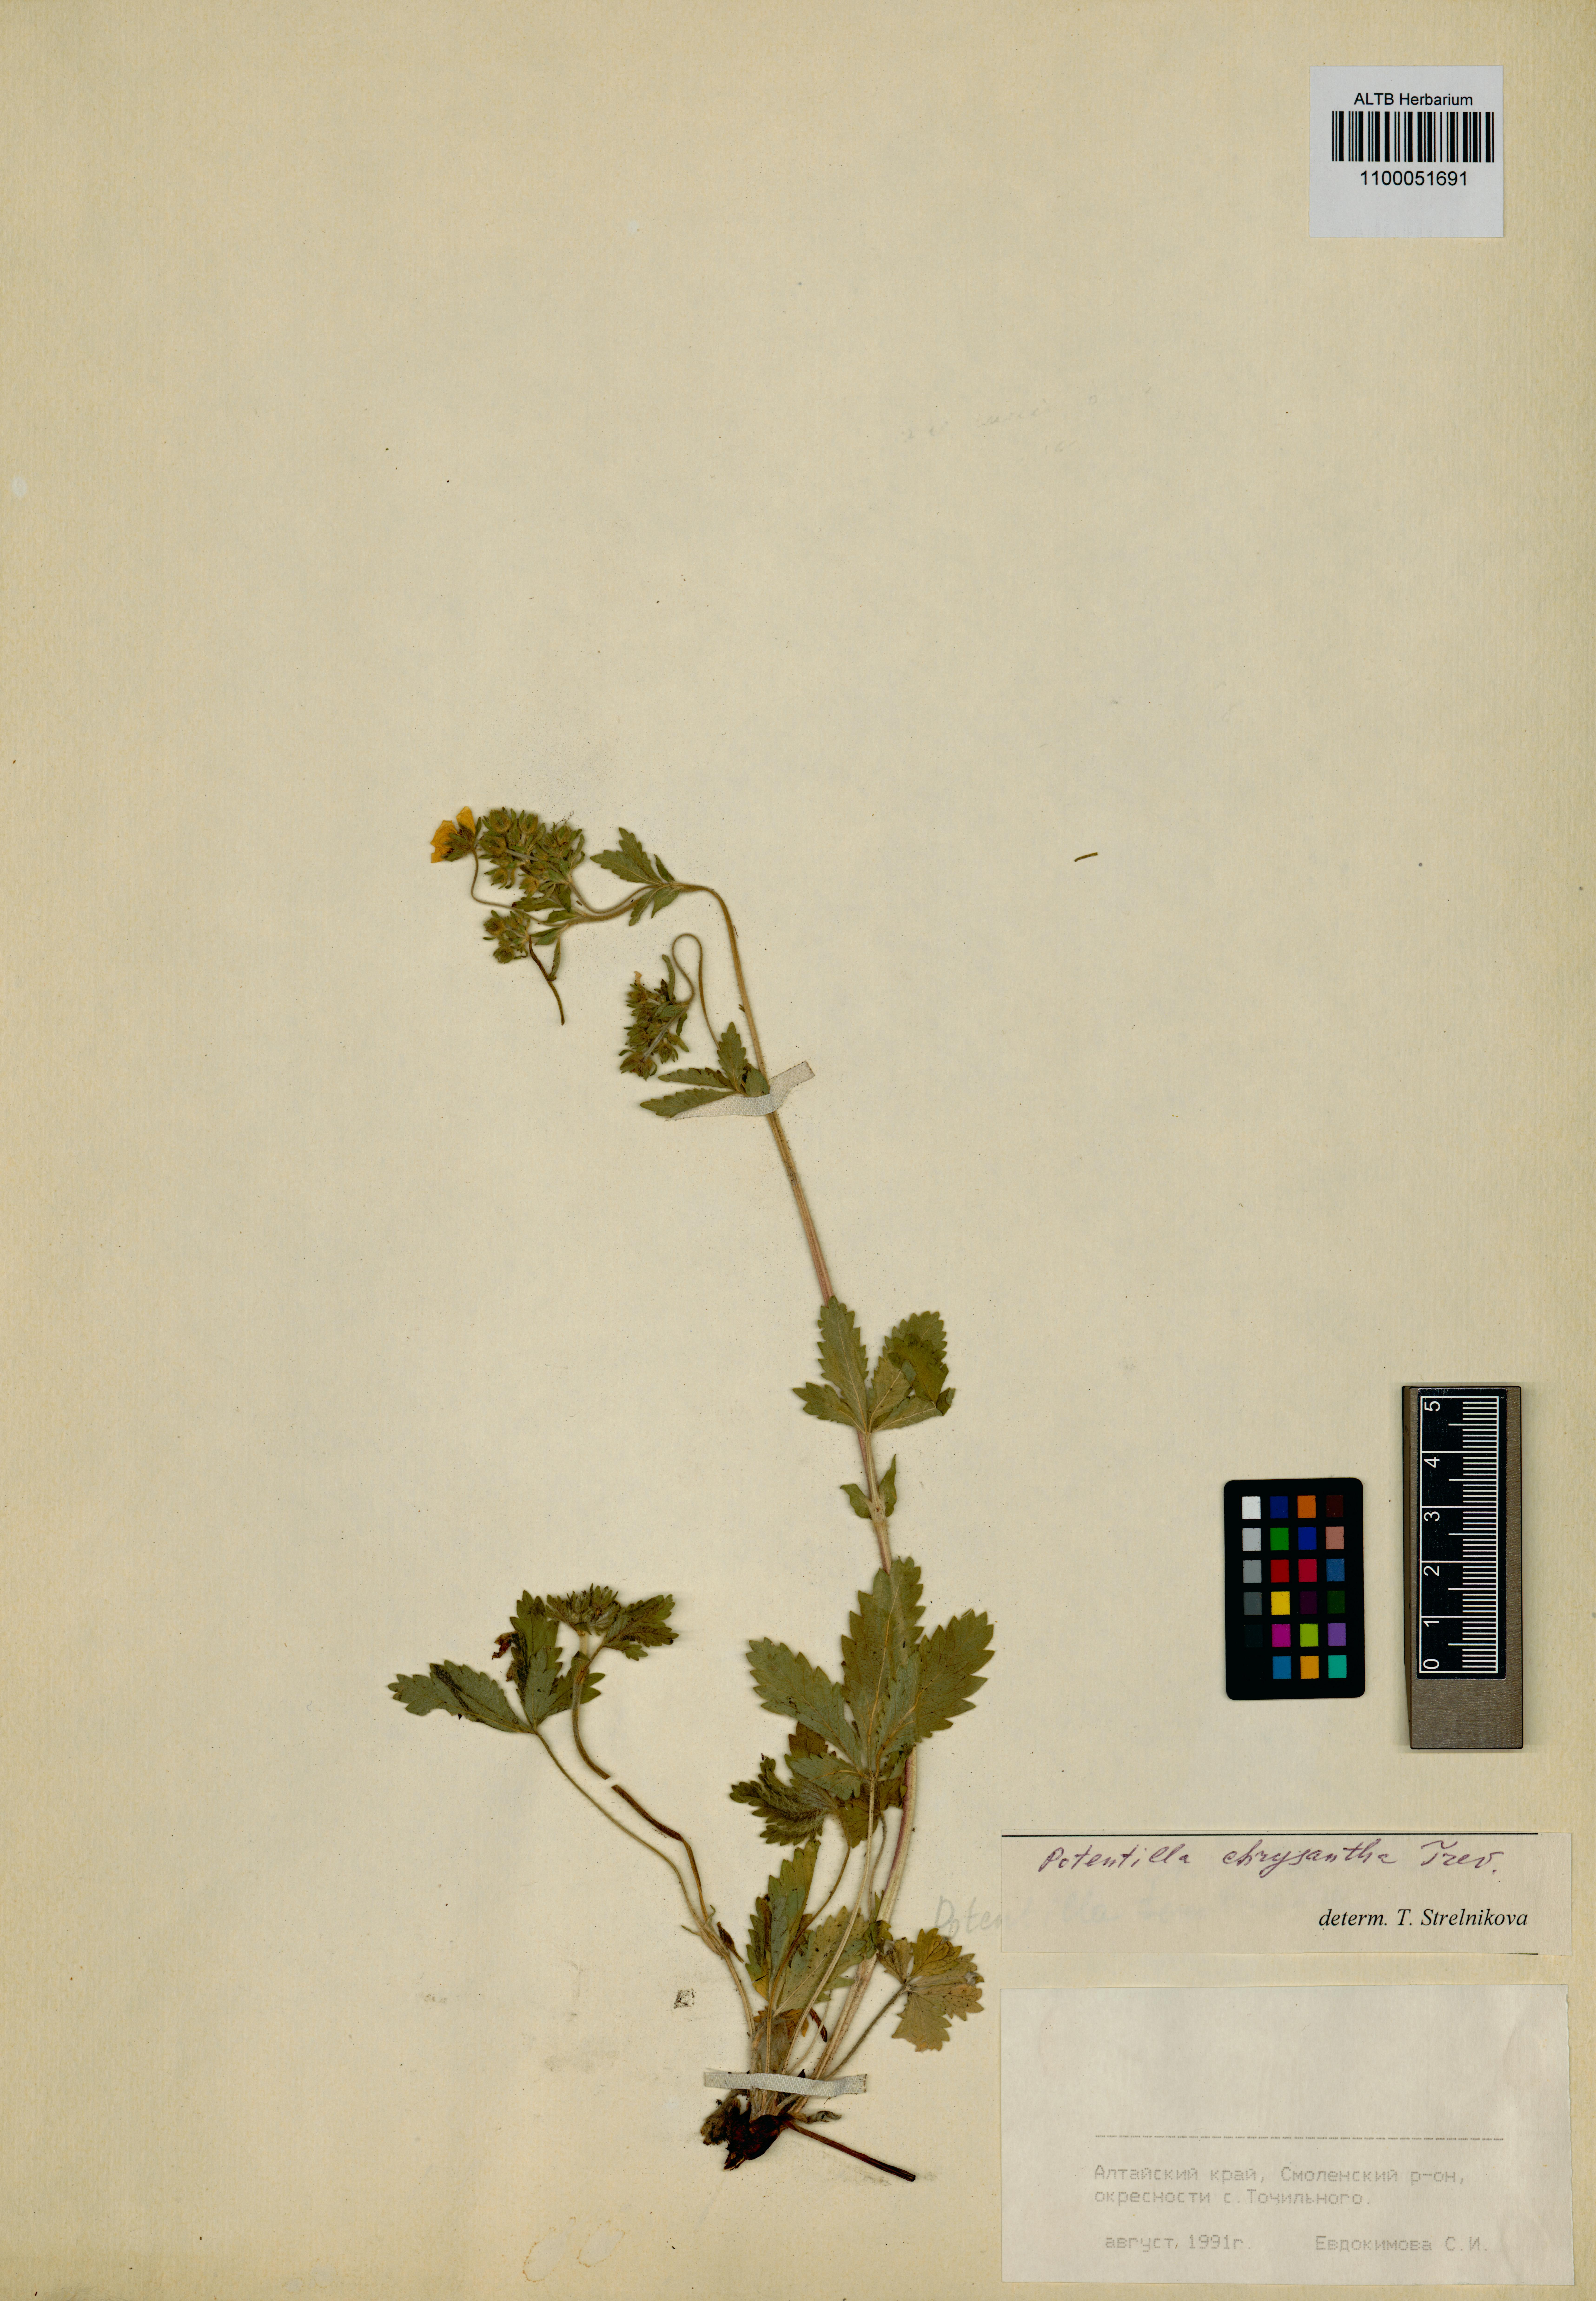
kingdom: Plantae
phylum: Tracheophyta
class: Magnoliopsida
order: Rosales
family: Rosaceae
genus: Potentilla
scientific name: Potentilla chrysantha
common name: Thuringian cinquefoil
